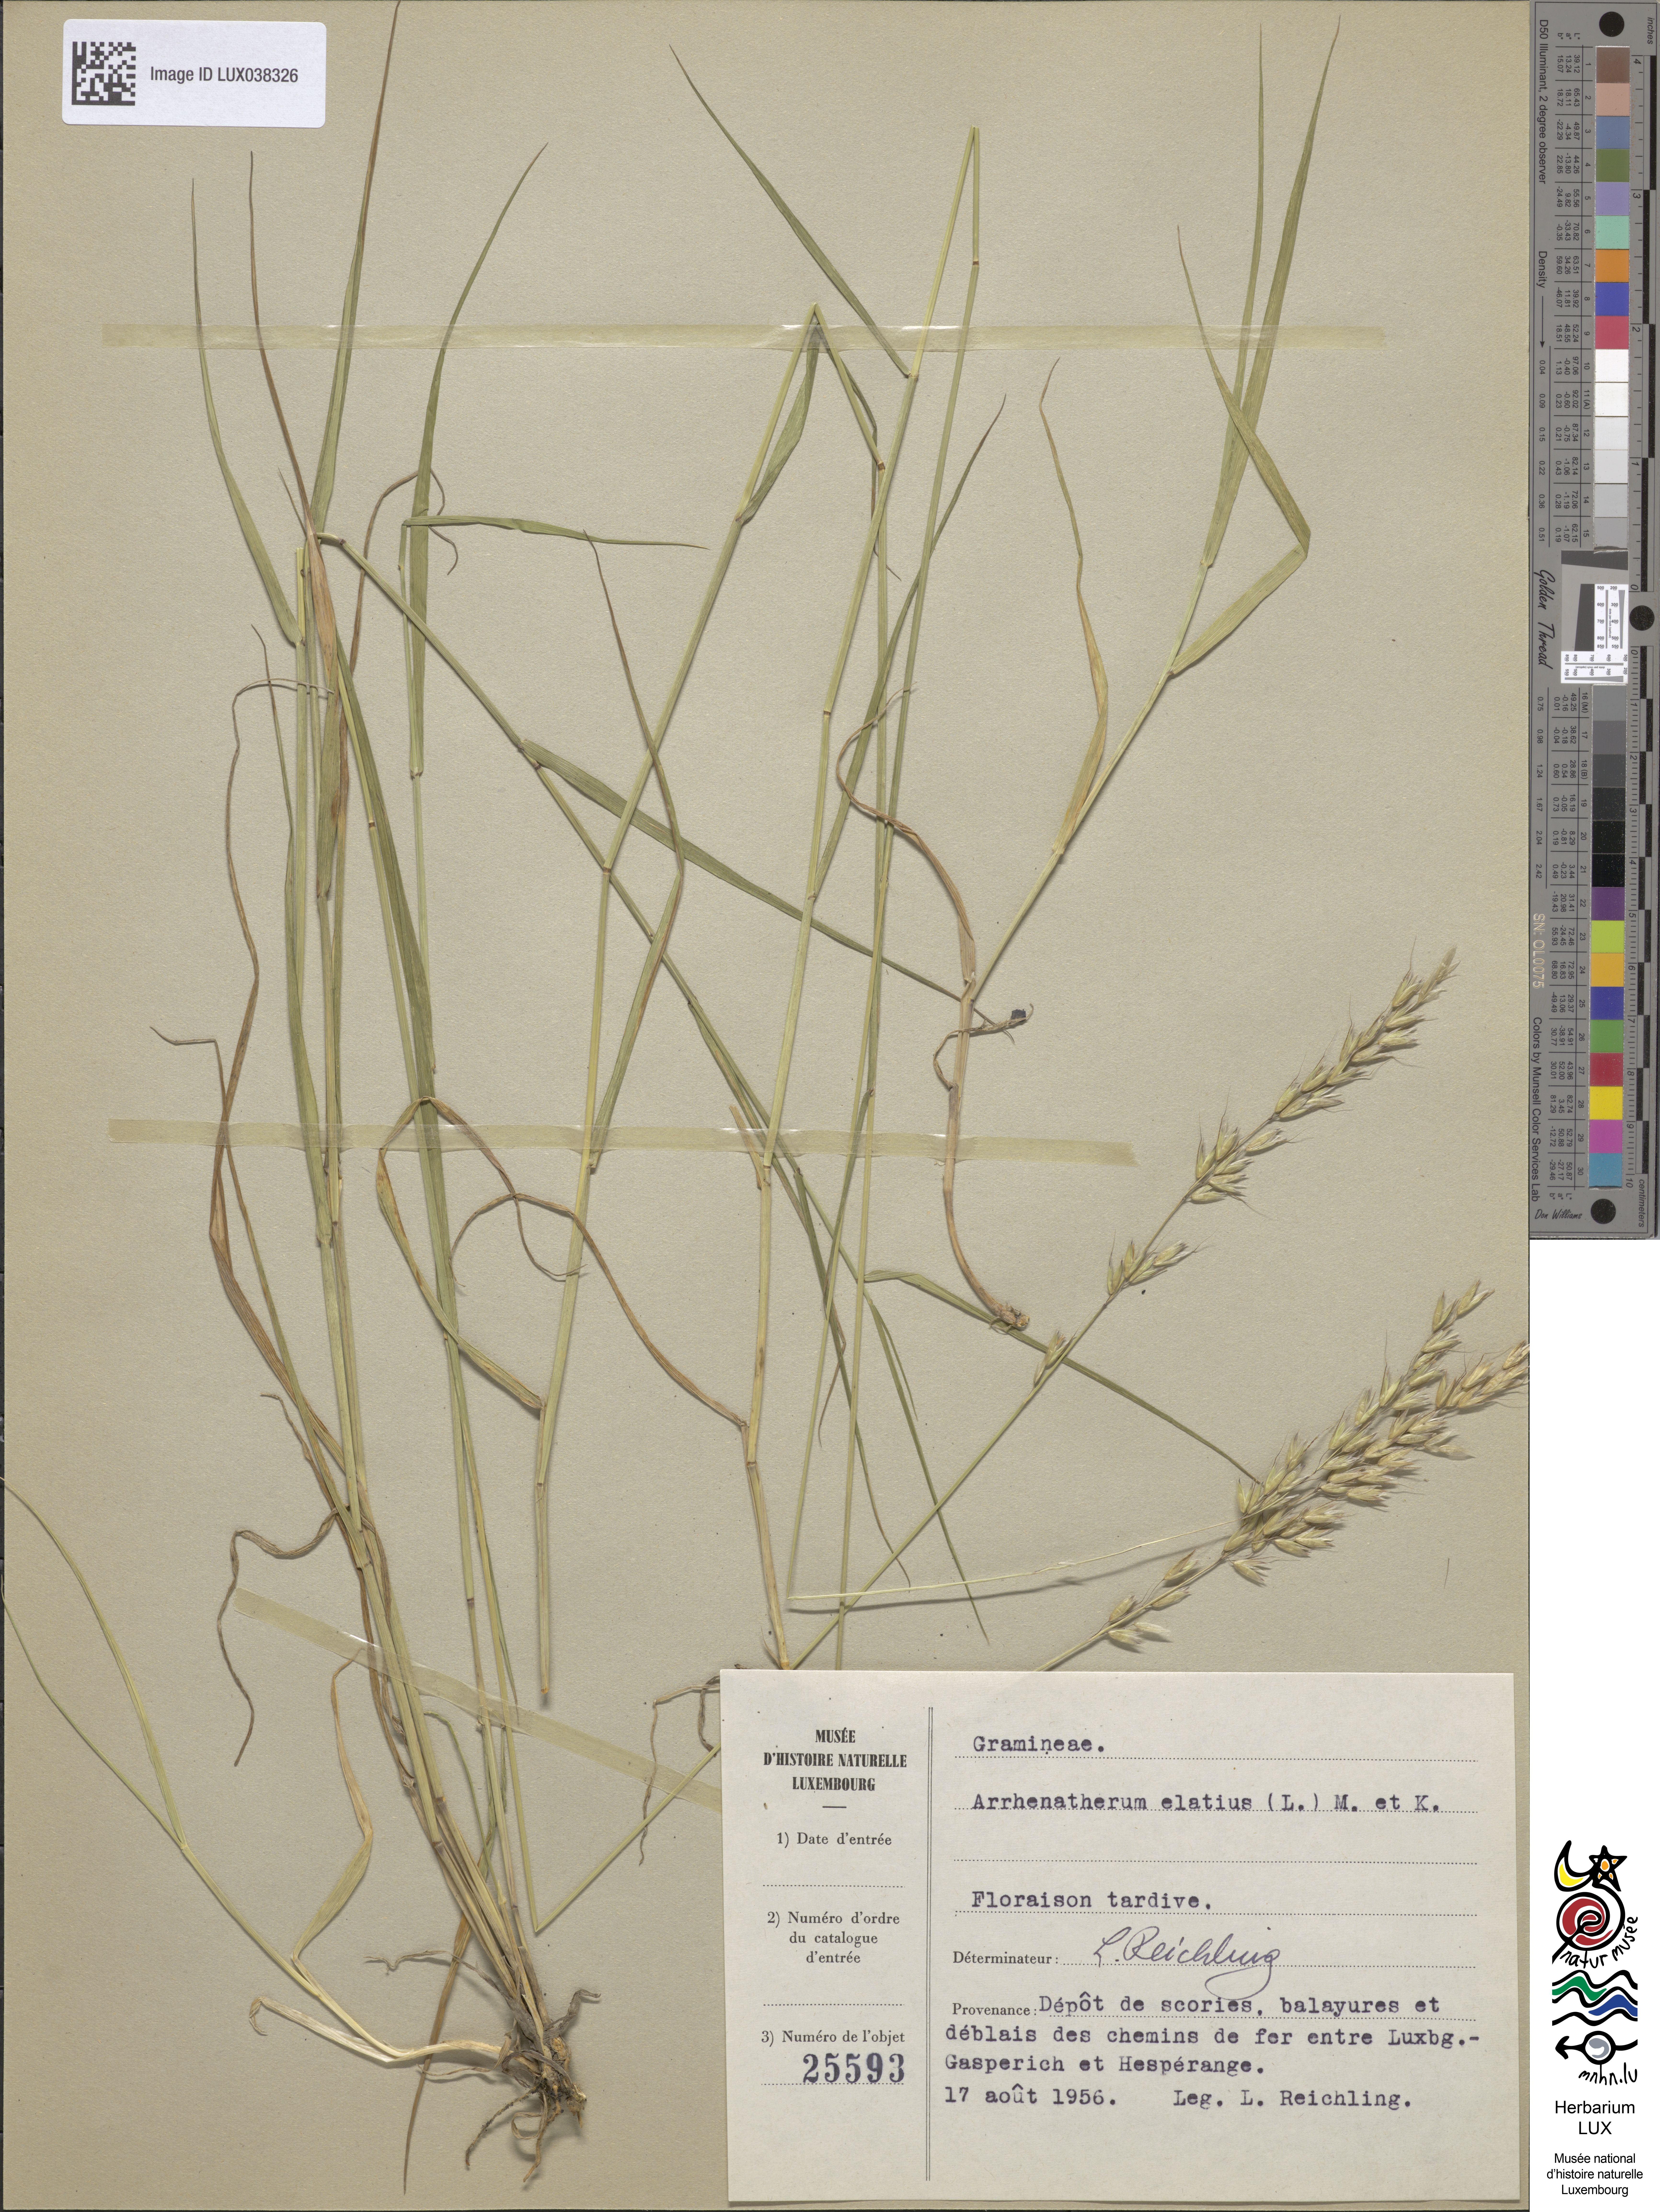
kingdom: Plantae
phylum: Tracheophyta
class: Liliopsida
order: Poales
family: Poaceae
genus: Arrhenatherum
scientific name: Arrhenatherum elatius
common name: Tall oatgrass
